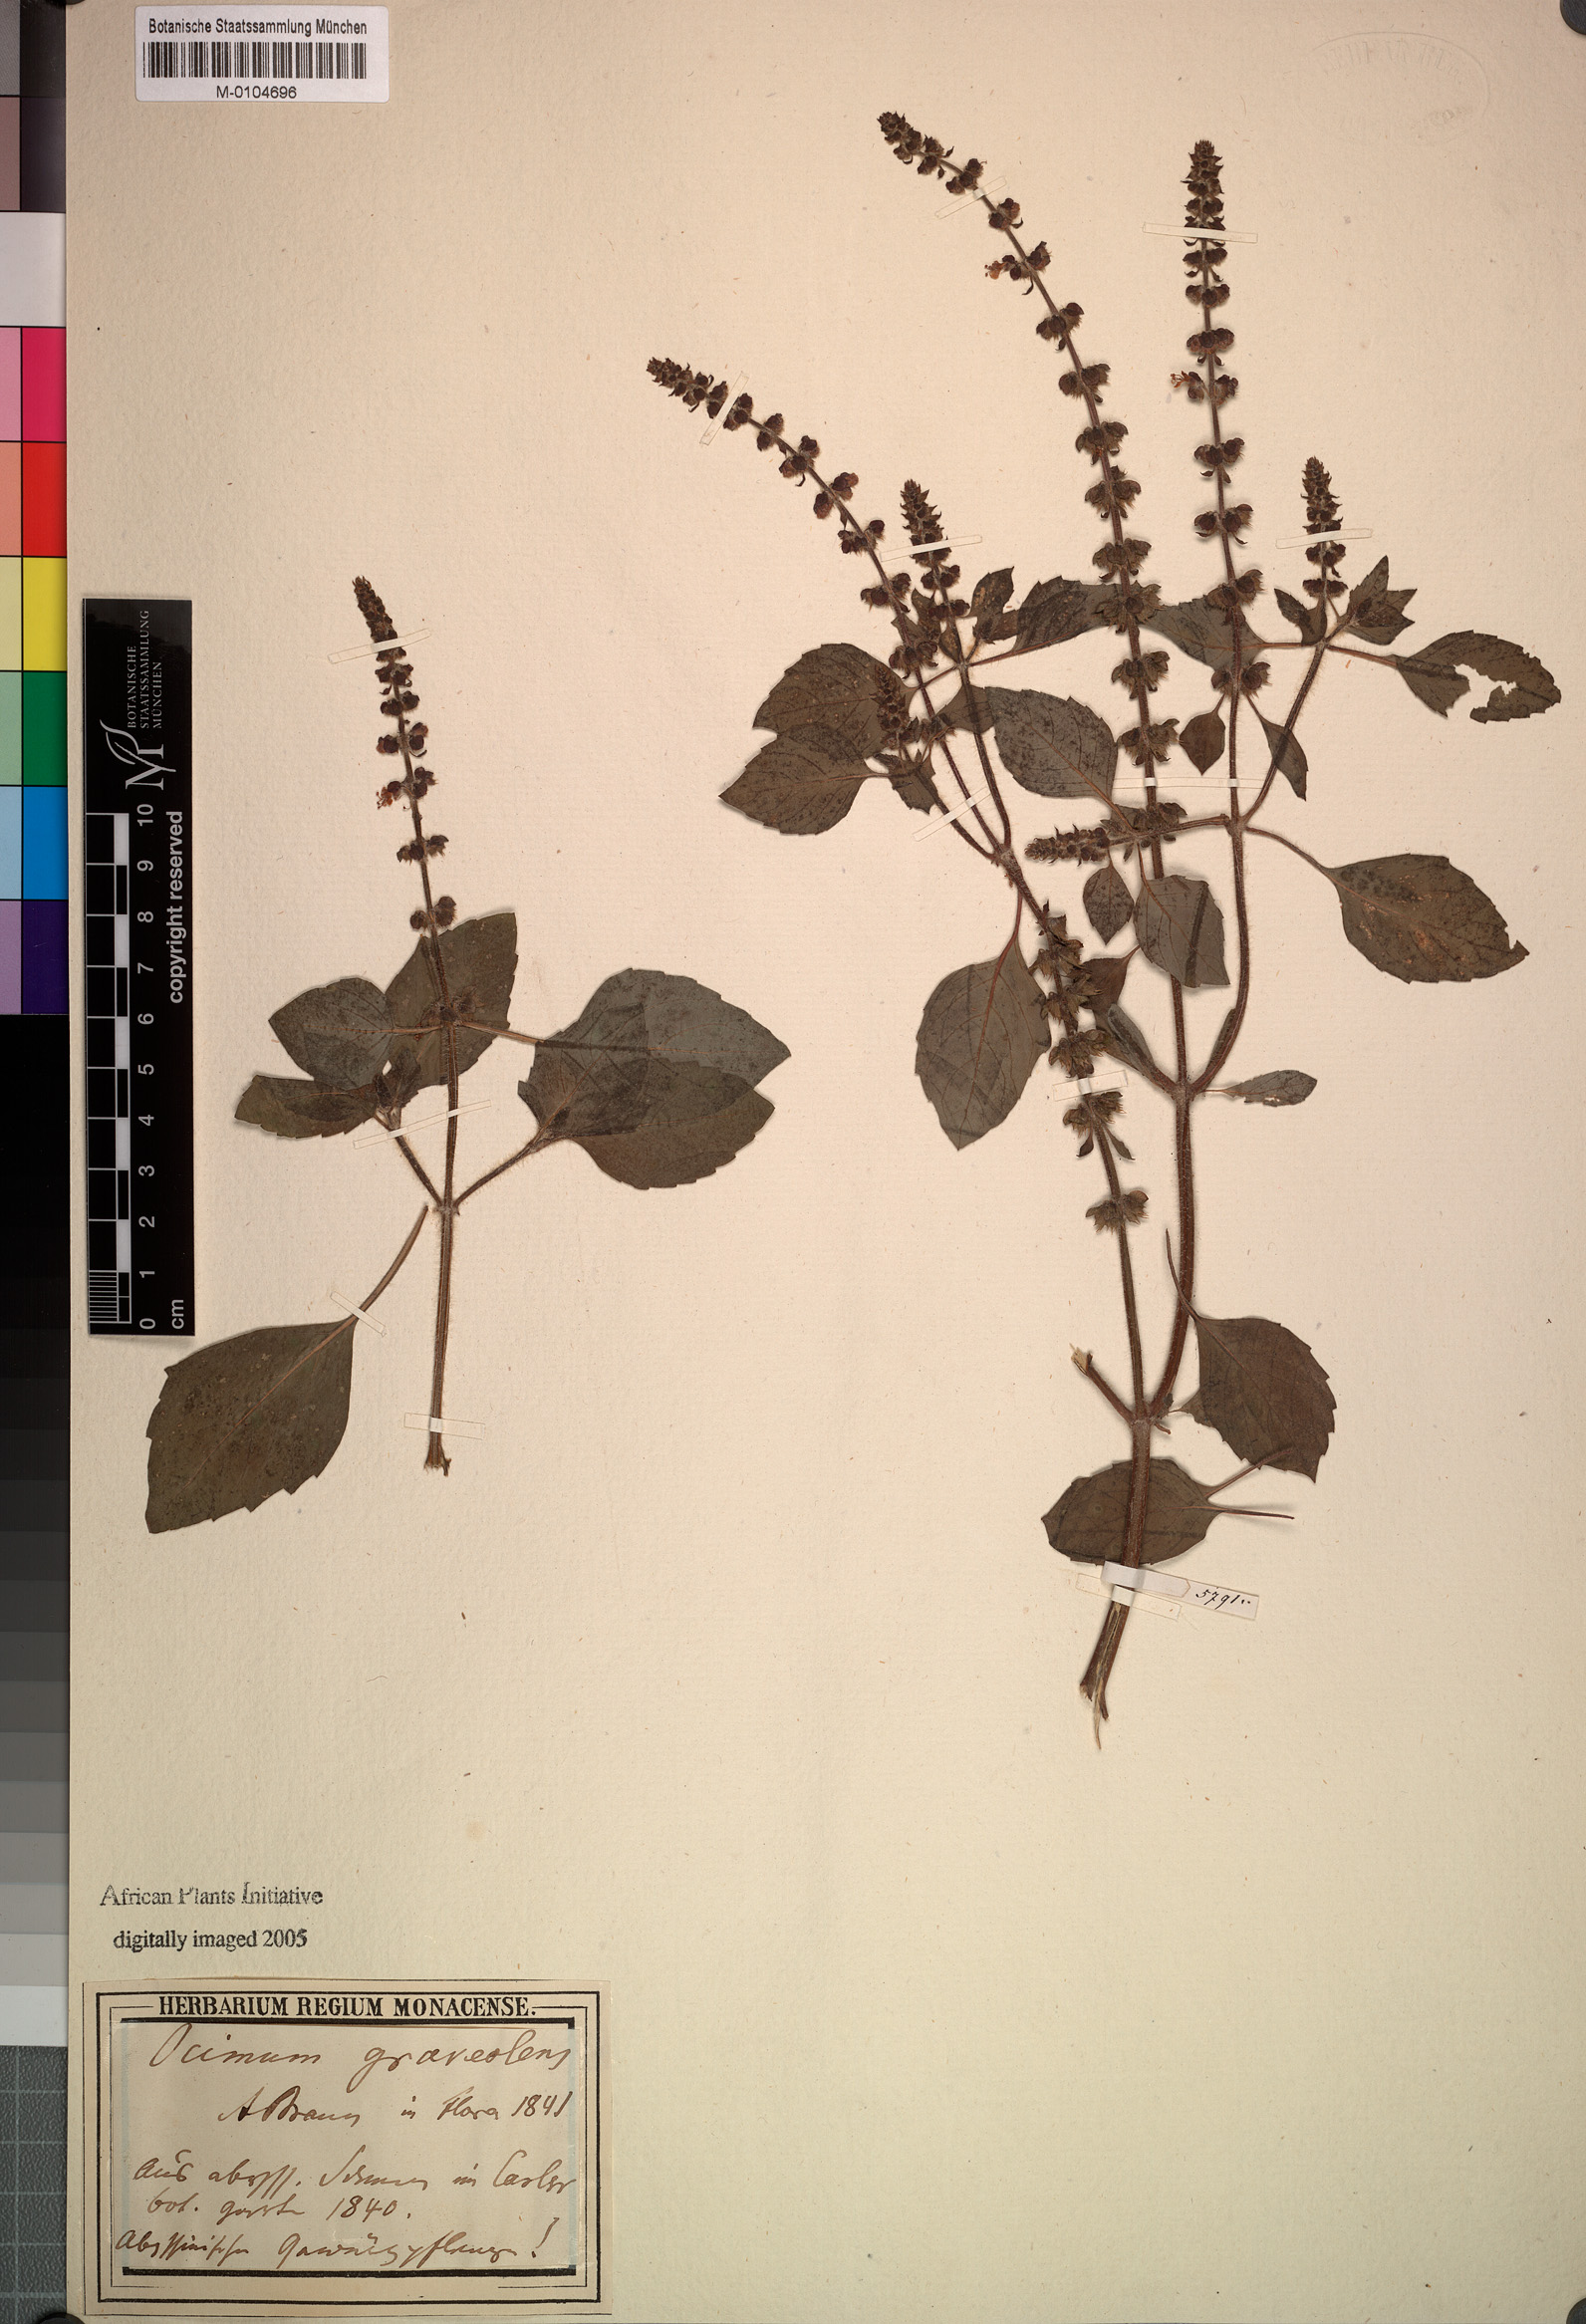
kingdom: Plantae
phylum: Tracheophyta
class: Magnoliopsida
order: Lamiales
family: Lamiaceae
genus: Ocimum
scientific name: Ocimum africanum
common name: Hoary basil
